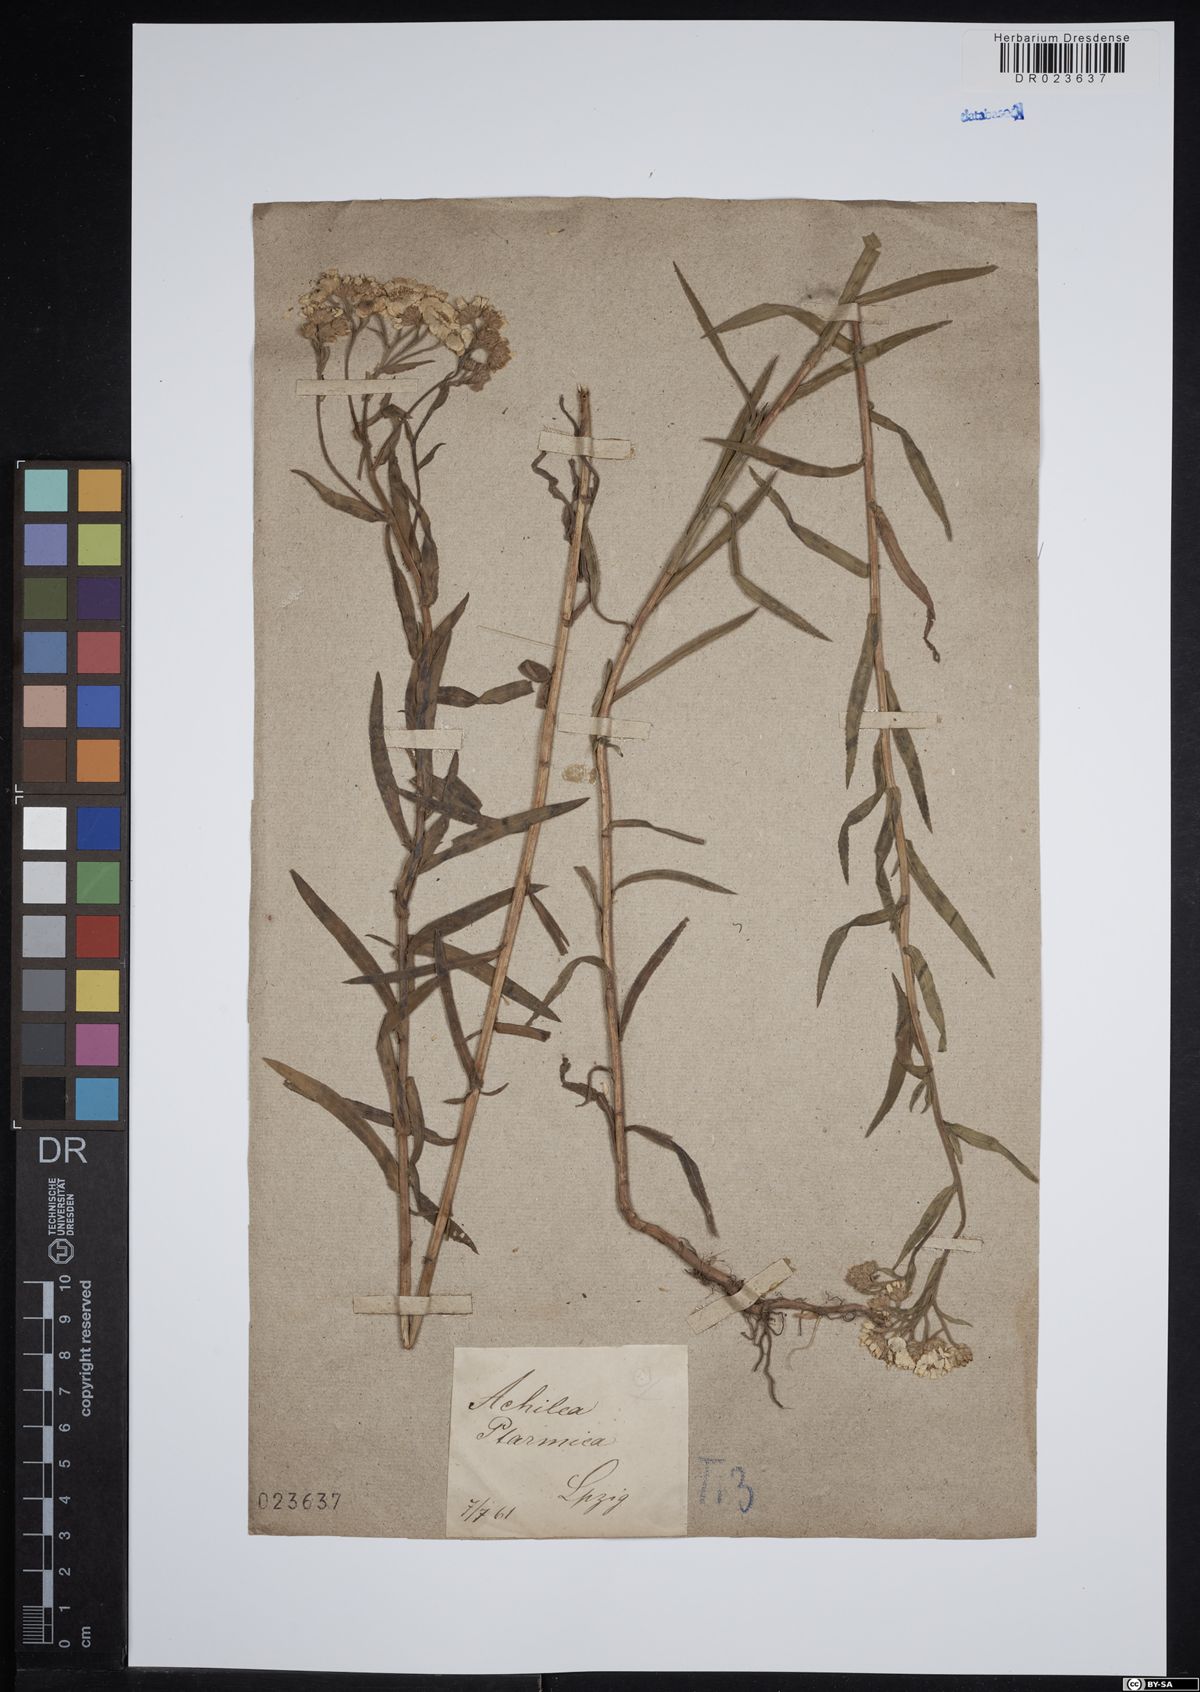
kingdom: Plantae
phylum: Tracheophyta
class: Magnoliopsida
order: Asterales
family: Asteraceae
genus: Achillea
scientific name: Achillea ptarmica
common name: Sneezeweed
